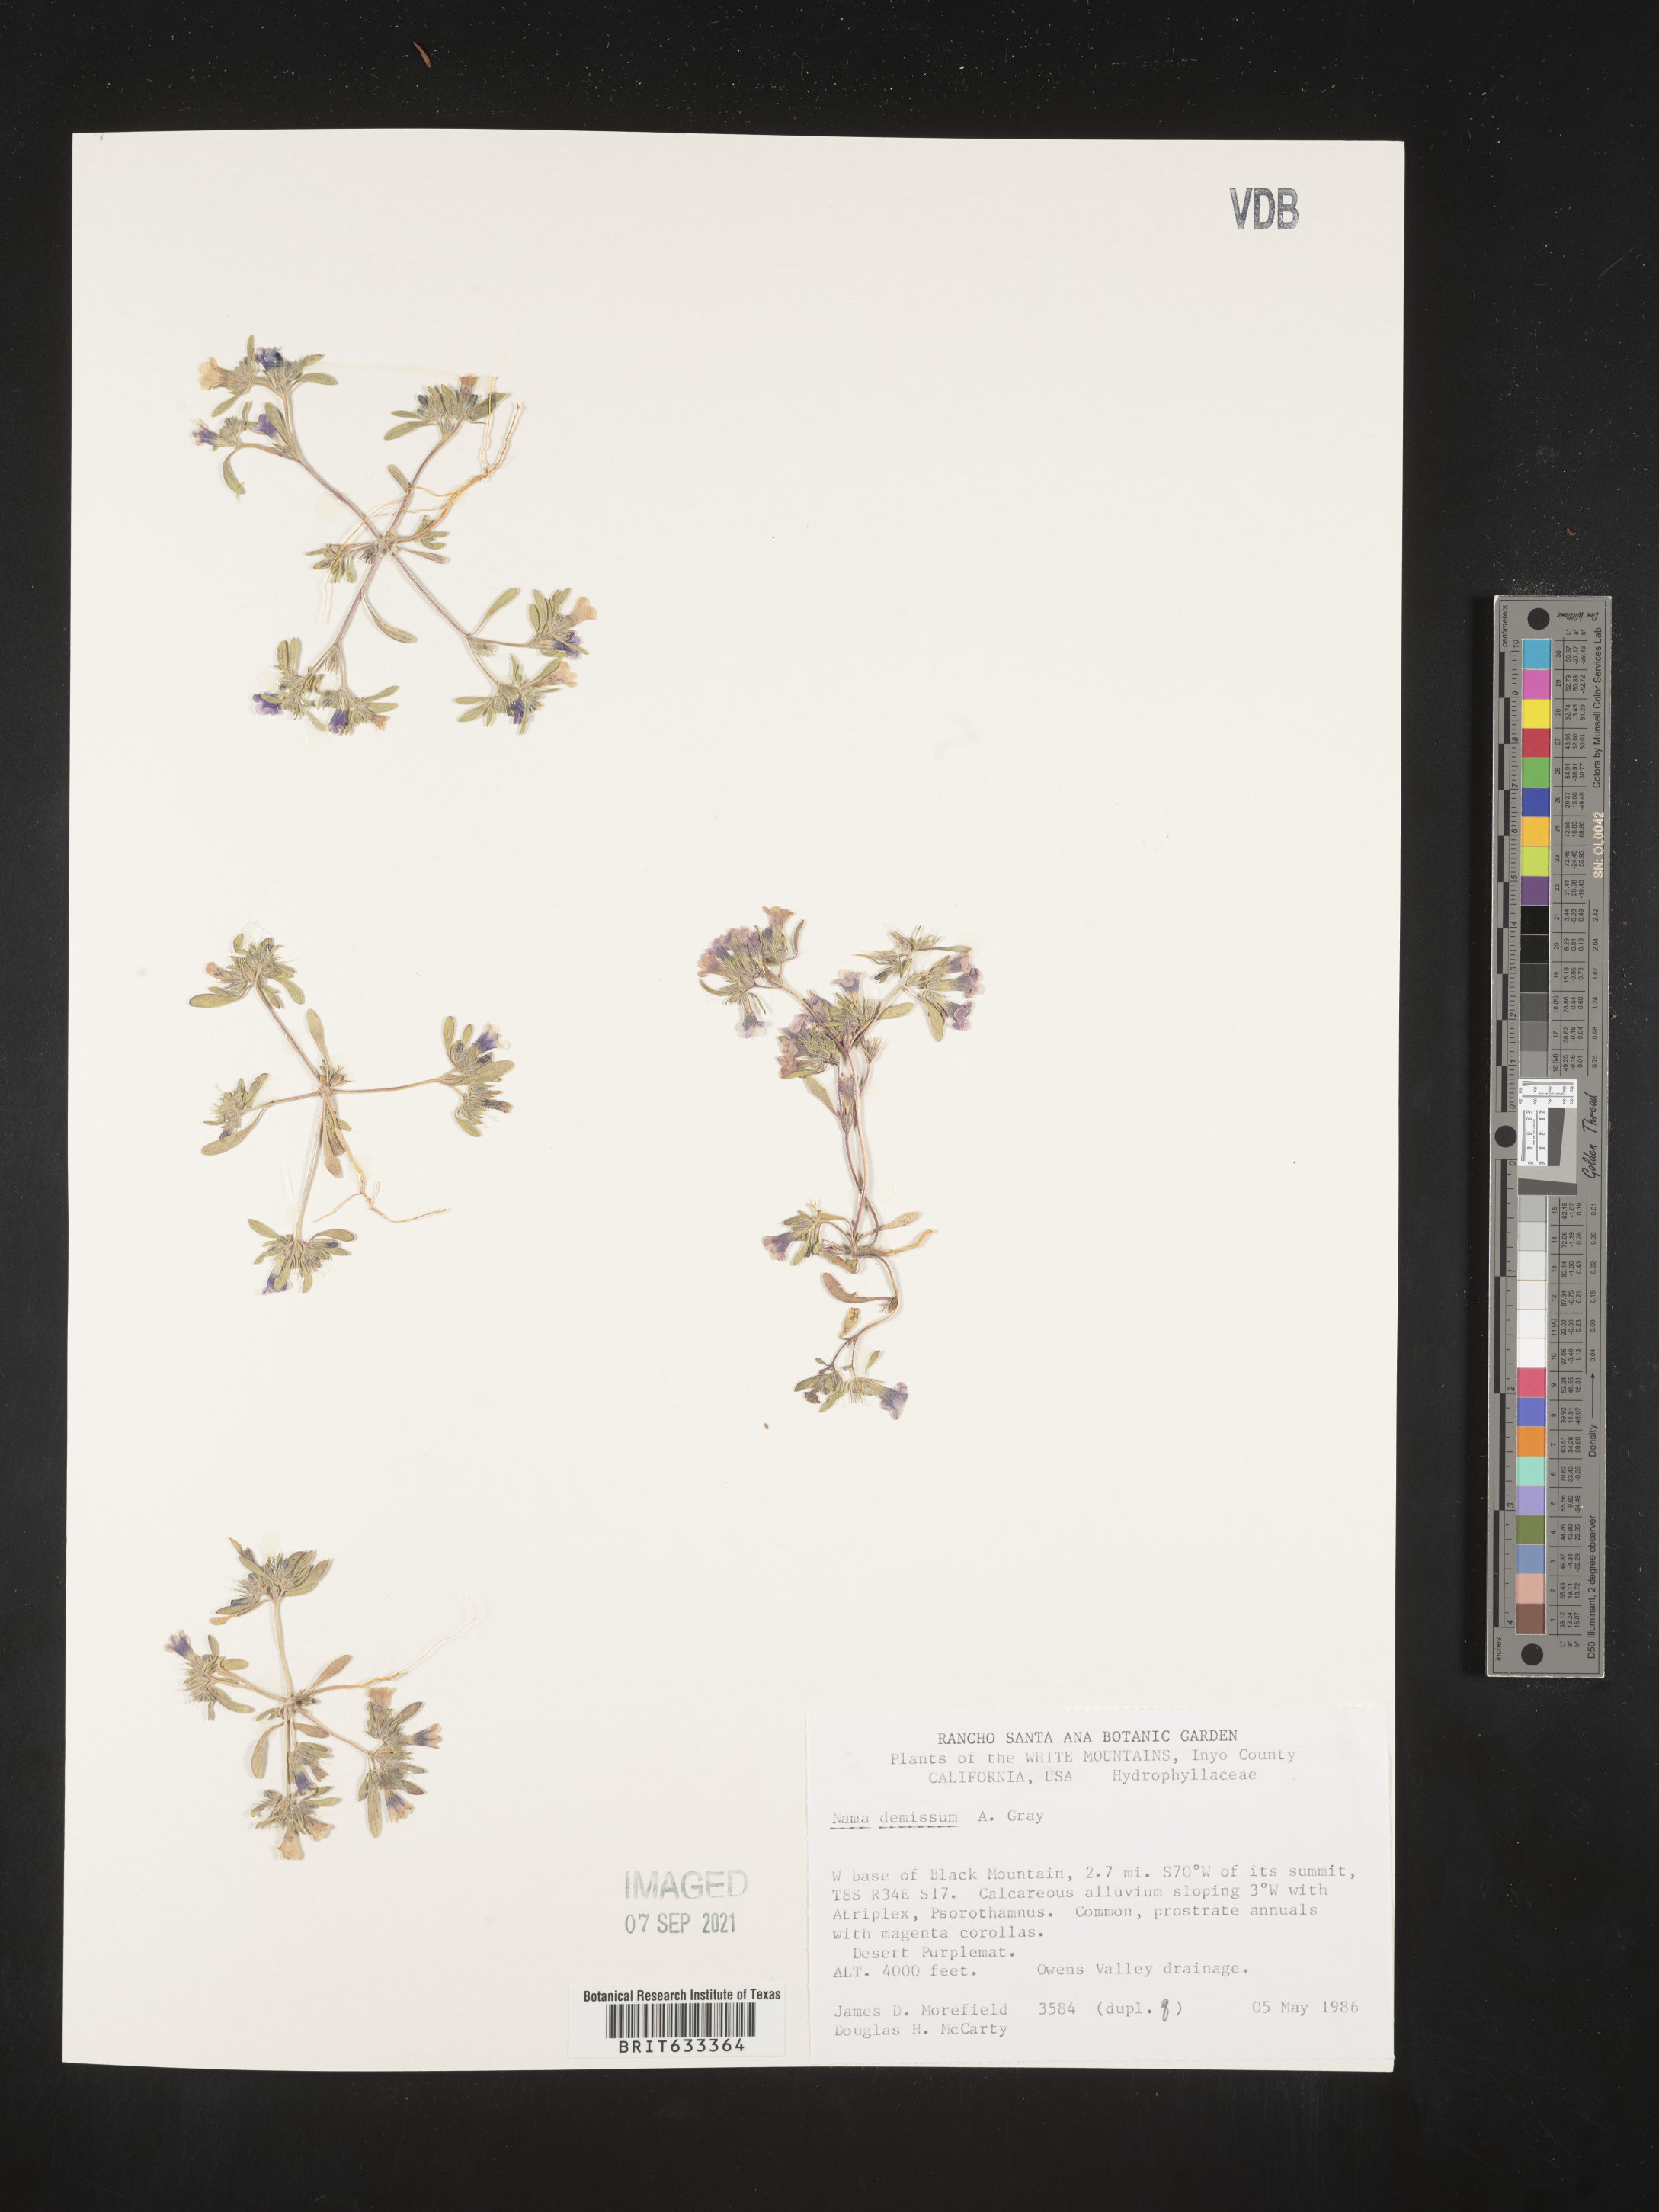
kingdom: Plantae
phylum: Tracheophyta
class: Magnoliopsida
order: Boraginales
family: Namaceae
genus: Nama
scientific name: Nama demissa
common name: Leafy nama
